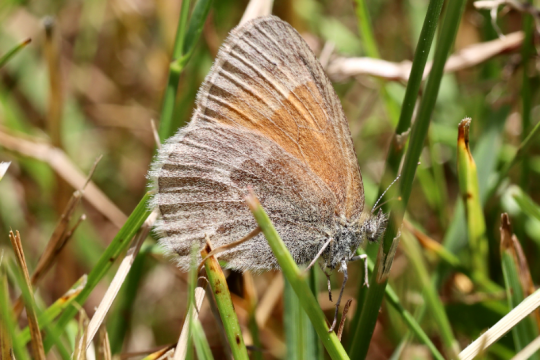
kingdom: Animalia
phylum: Arthropoda
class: Insecta
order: Lepidoptera
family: Nymphalidae
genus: Coenonympha
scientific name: Coenonympha california
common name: California Ringlet
